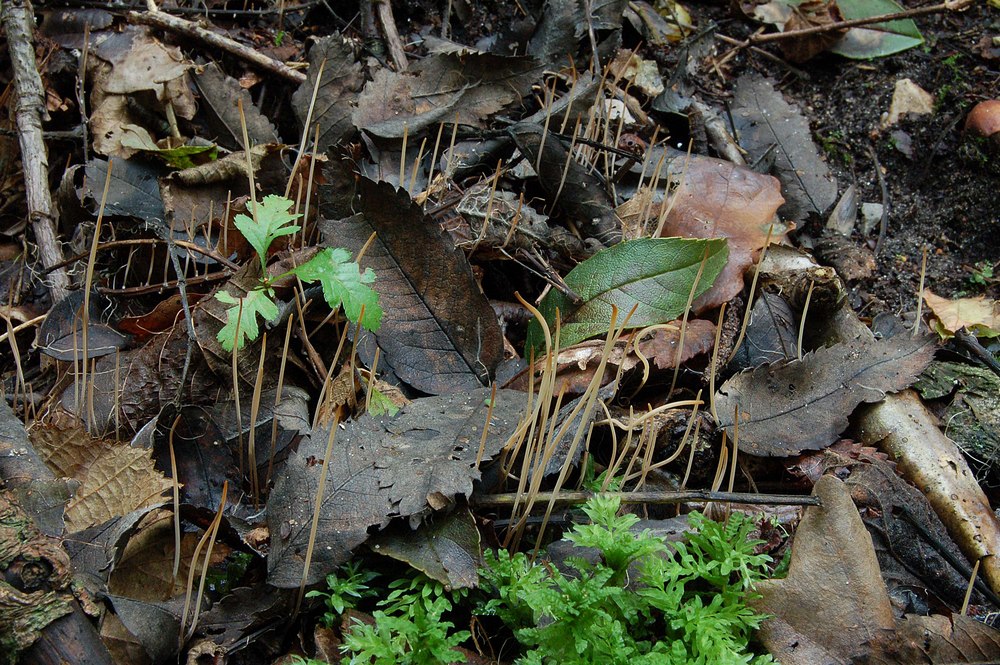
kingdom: Fungi
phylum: Basidiomycota
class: Agaricomycetes
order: Agaricales
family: Typhulaceae
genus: Macrotyphula
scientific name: Macrotyphula phacorrhiza
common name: lang rørkølle
